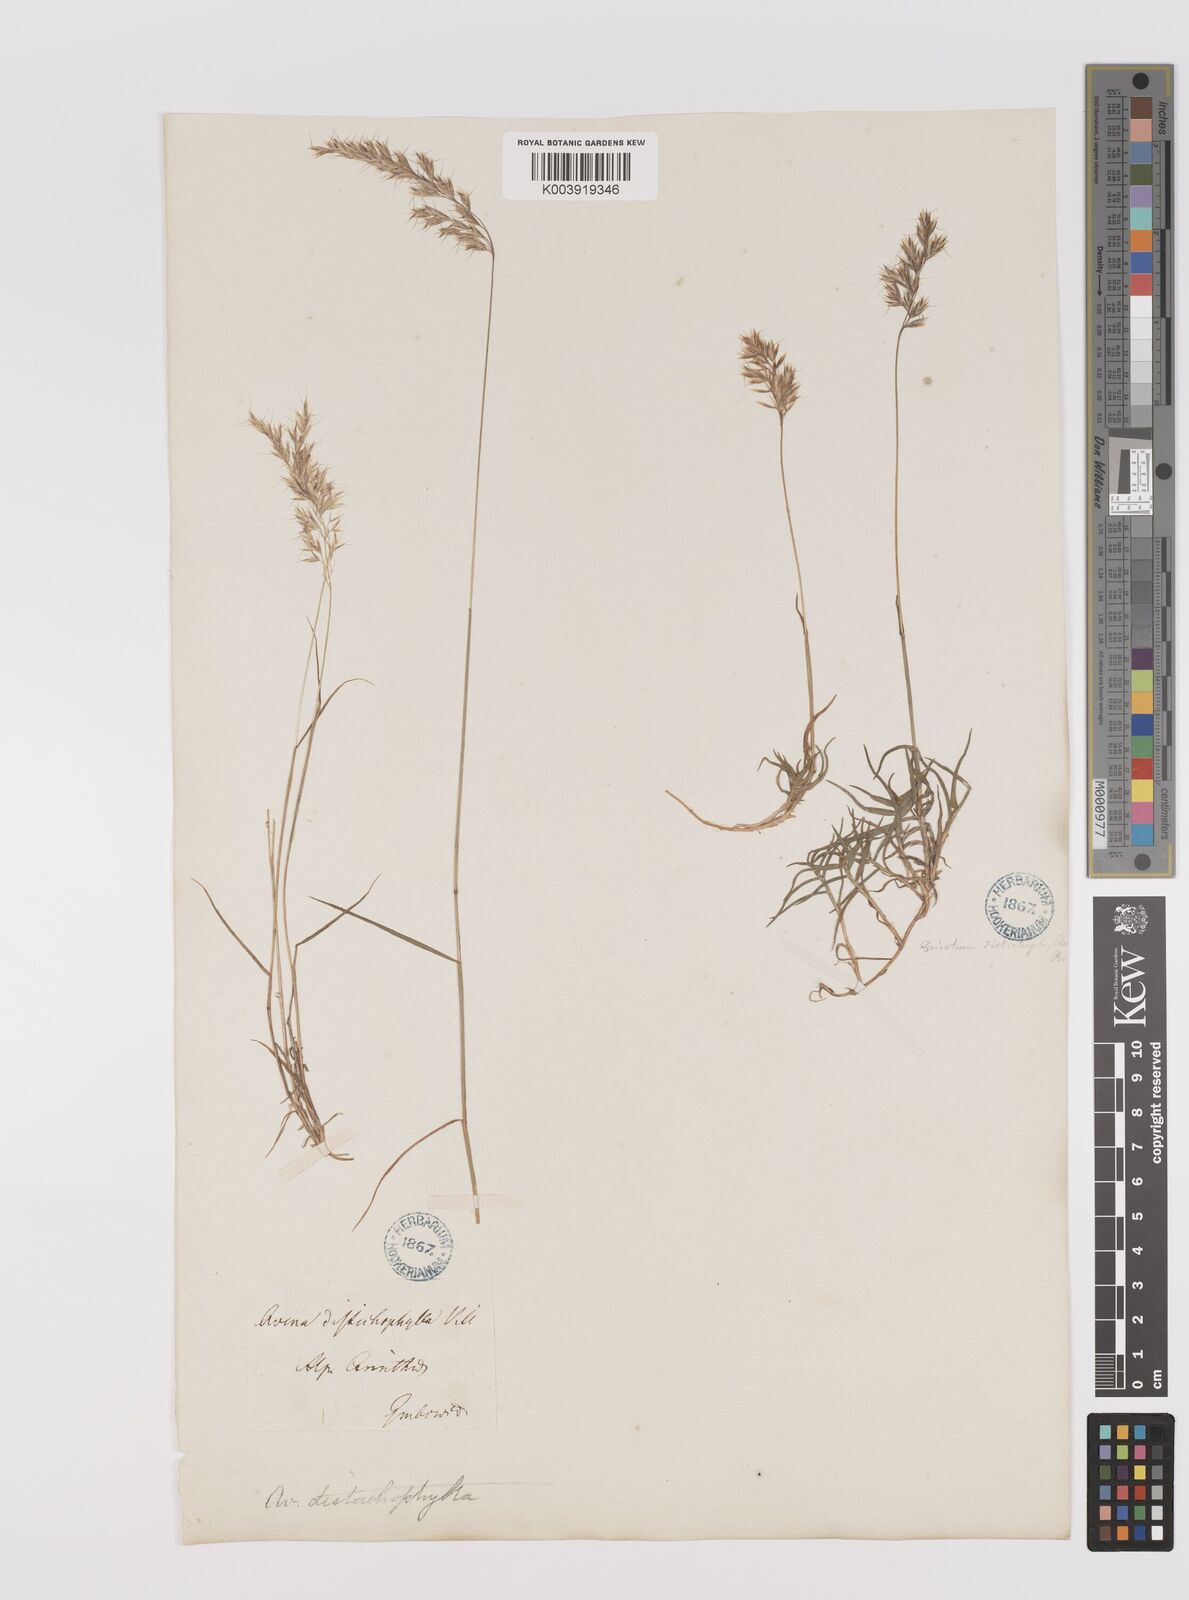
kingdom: Plantae
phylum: Tracheophyta
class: Liliopsida
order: Poales
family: Poaceae
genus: Acrospelion
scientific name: Acrospelion distichophyllum
